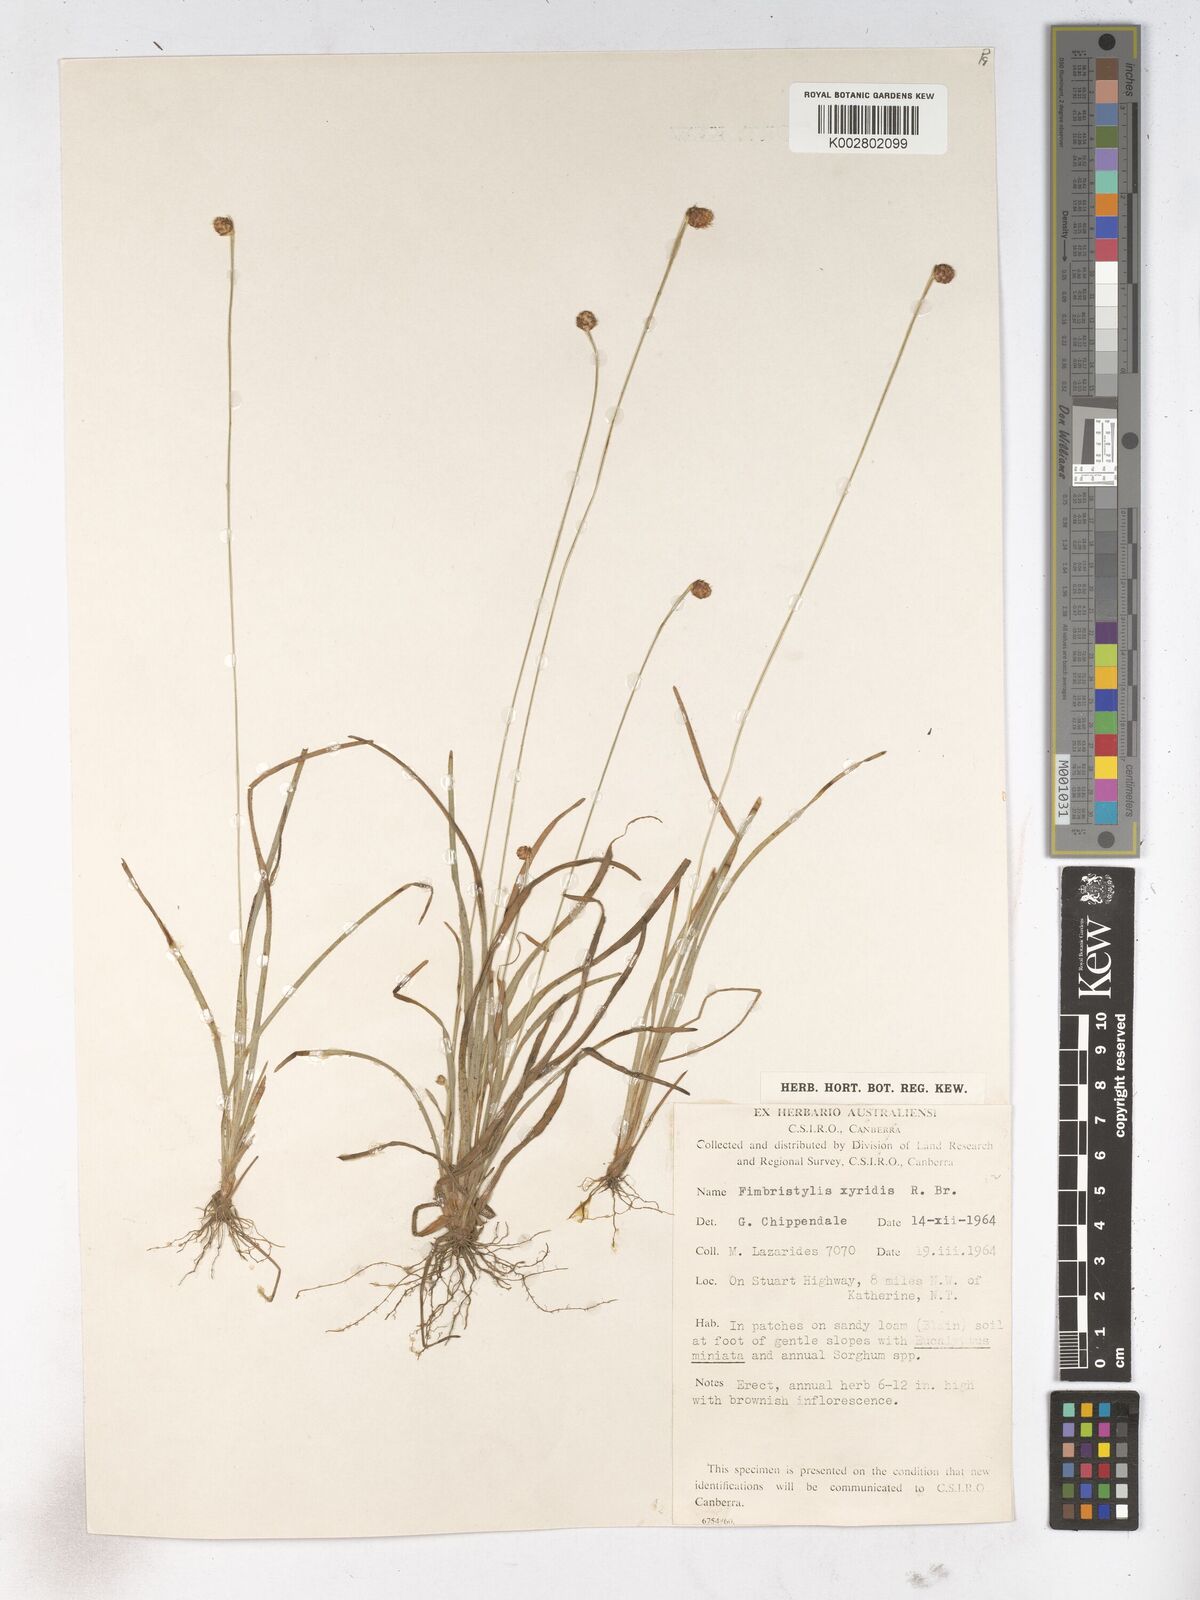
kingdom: Plantae
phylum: Tracheophyta
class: Liliopsida
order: Poales
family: Cyperaceae
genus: Fimbristylis
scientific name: Fimbristylis xyridis
